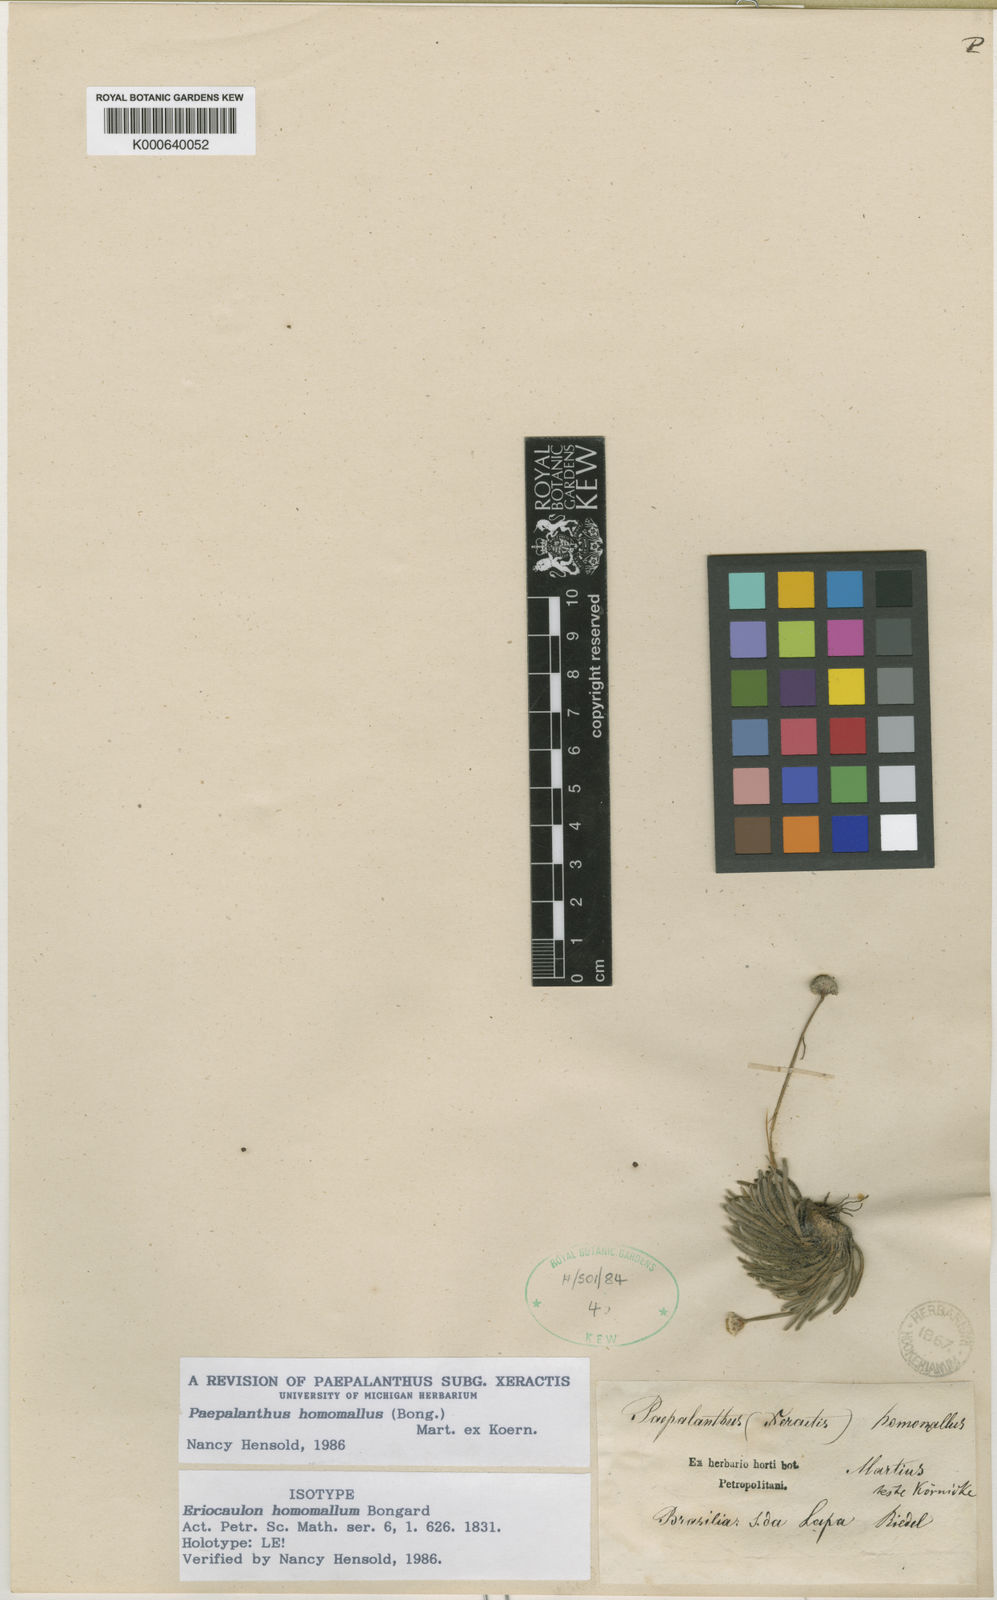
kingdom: Plantae
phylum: Tracheophyta
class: Liliopsida
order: Poales
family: Eriocaulaceae
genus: Paepalanthus
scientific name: Paepalanthus
